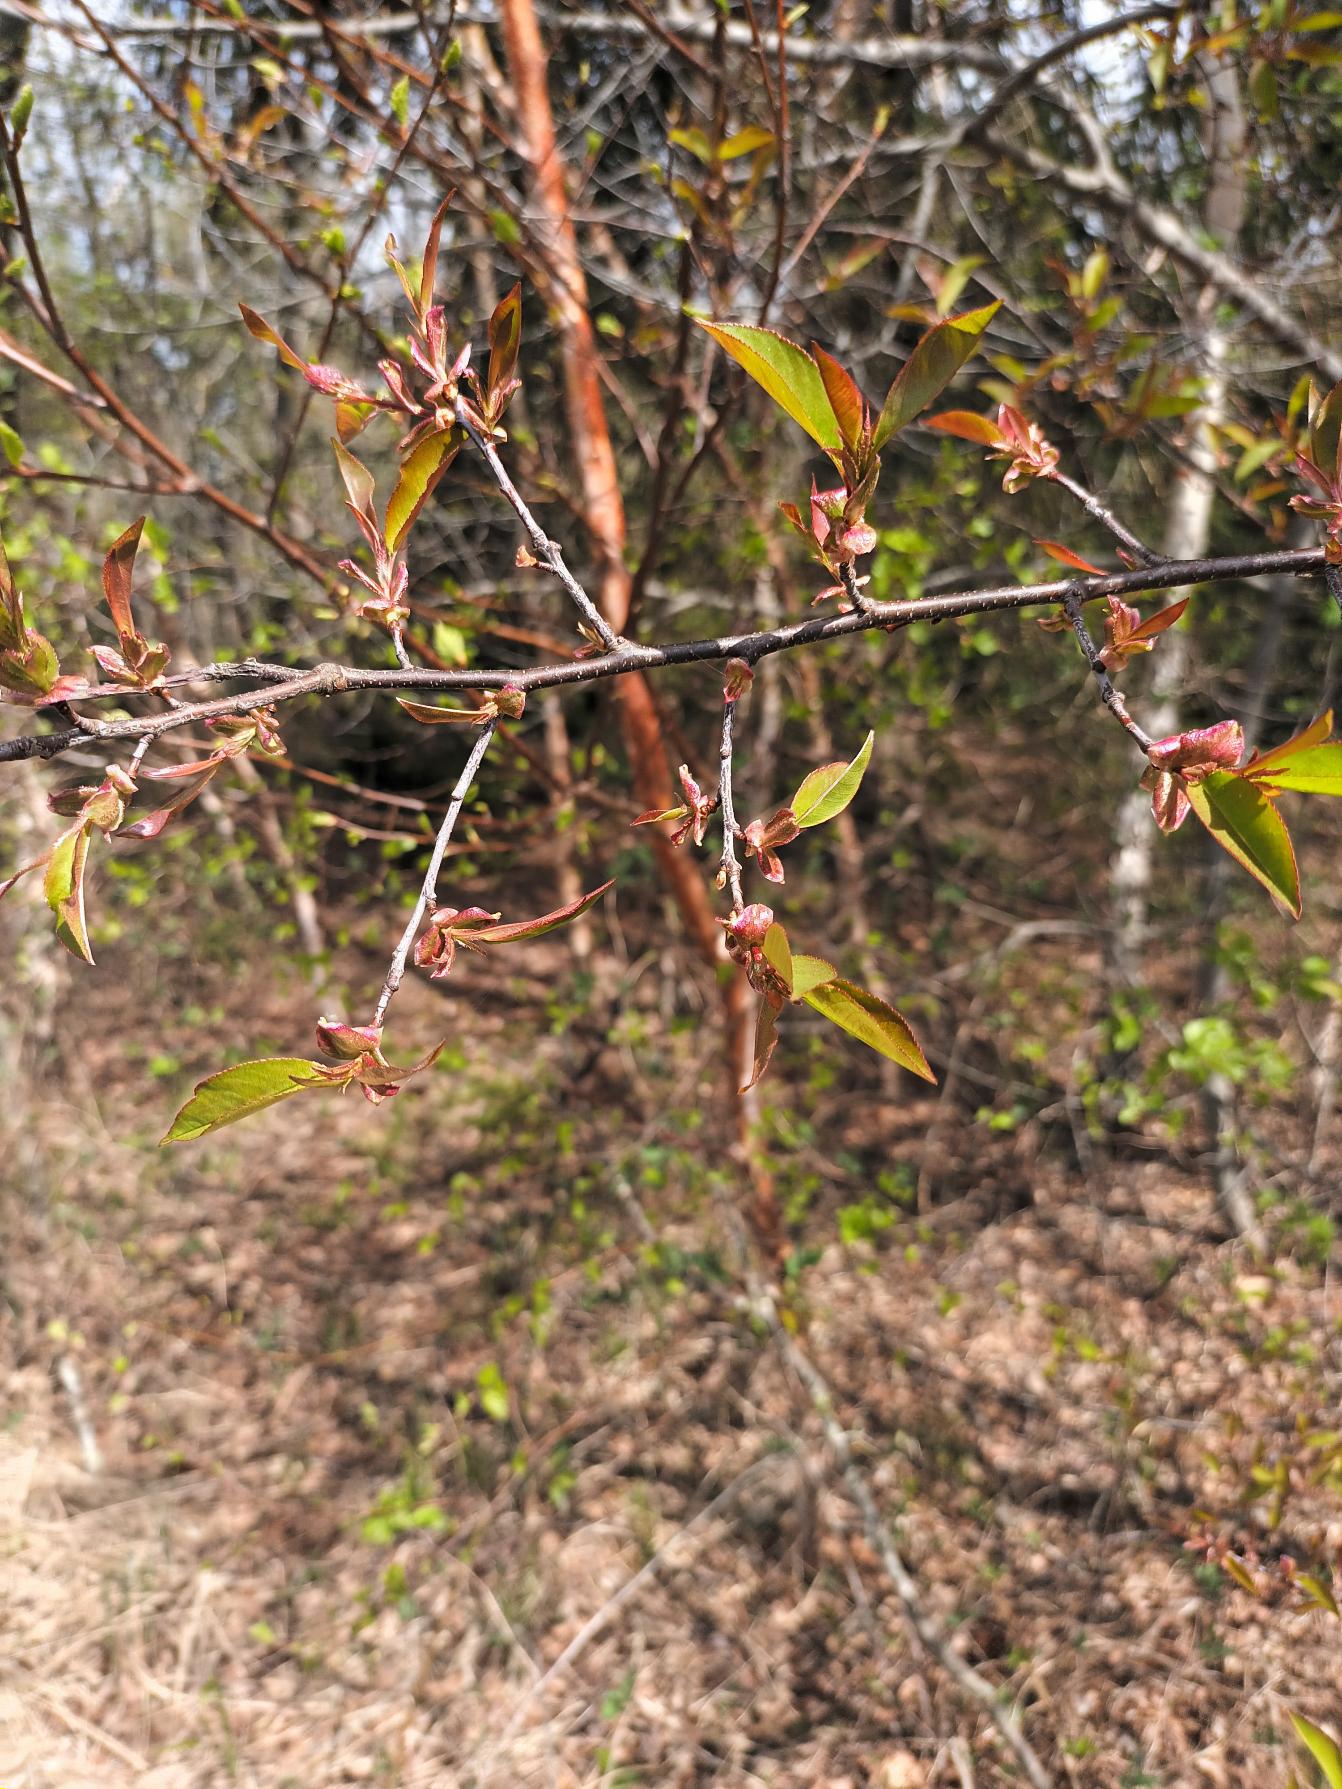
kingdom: Plantae
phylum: Tracheophyta
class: Magnoliopsida
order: Rosales
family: Rosaceae
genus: Prunus
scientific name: Prunus serotina
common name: Glansbladet hæg
